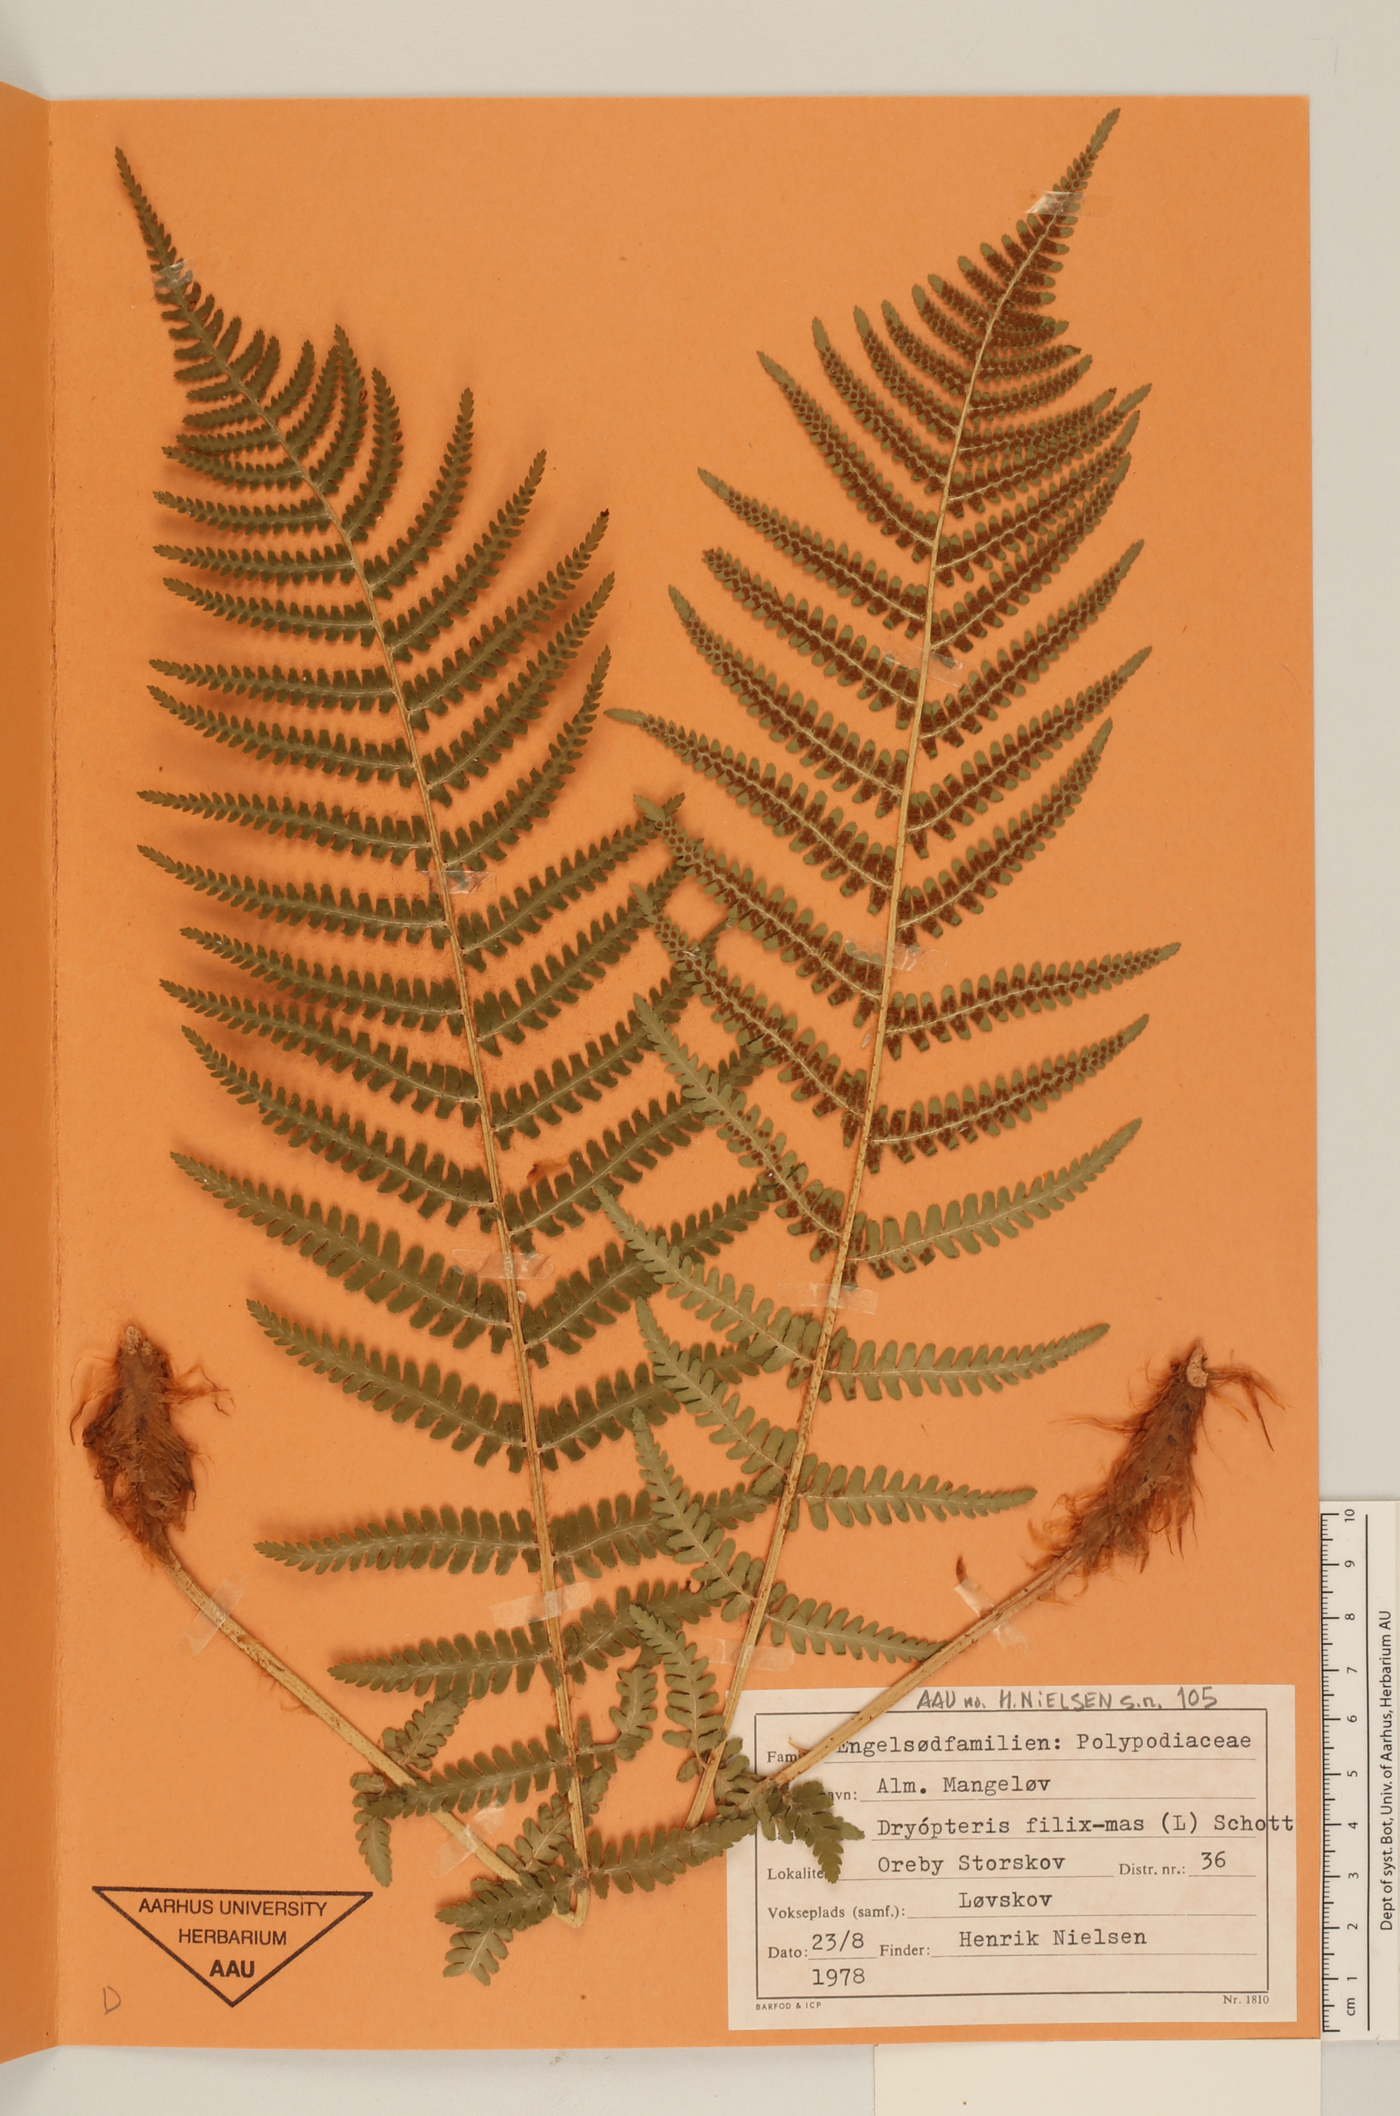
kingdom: Plantae
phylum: Tracheophyta
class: Polypodiopsida
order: Polypodiales
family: Dryopteridaceae
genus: Dryopteris
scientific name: Dryopteris filix-mas
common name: Male fern
